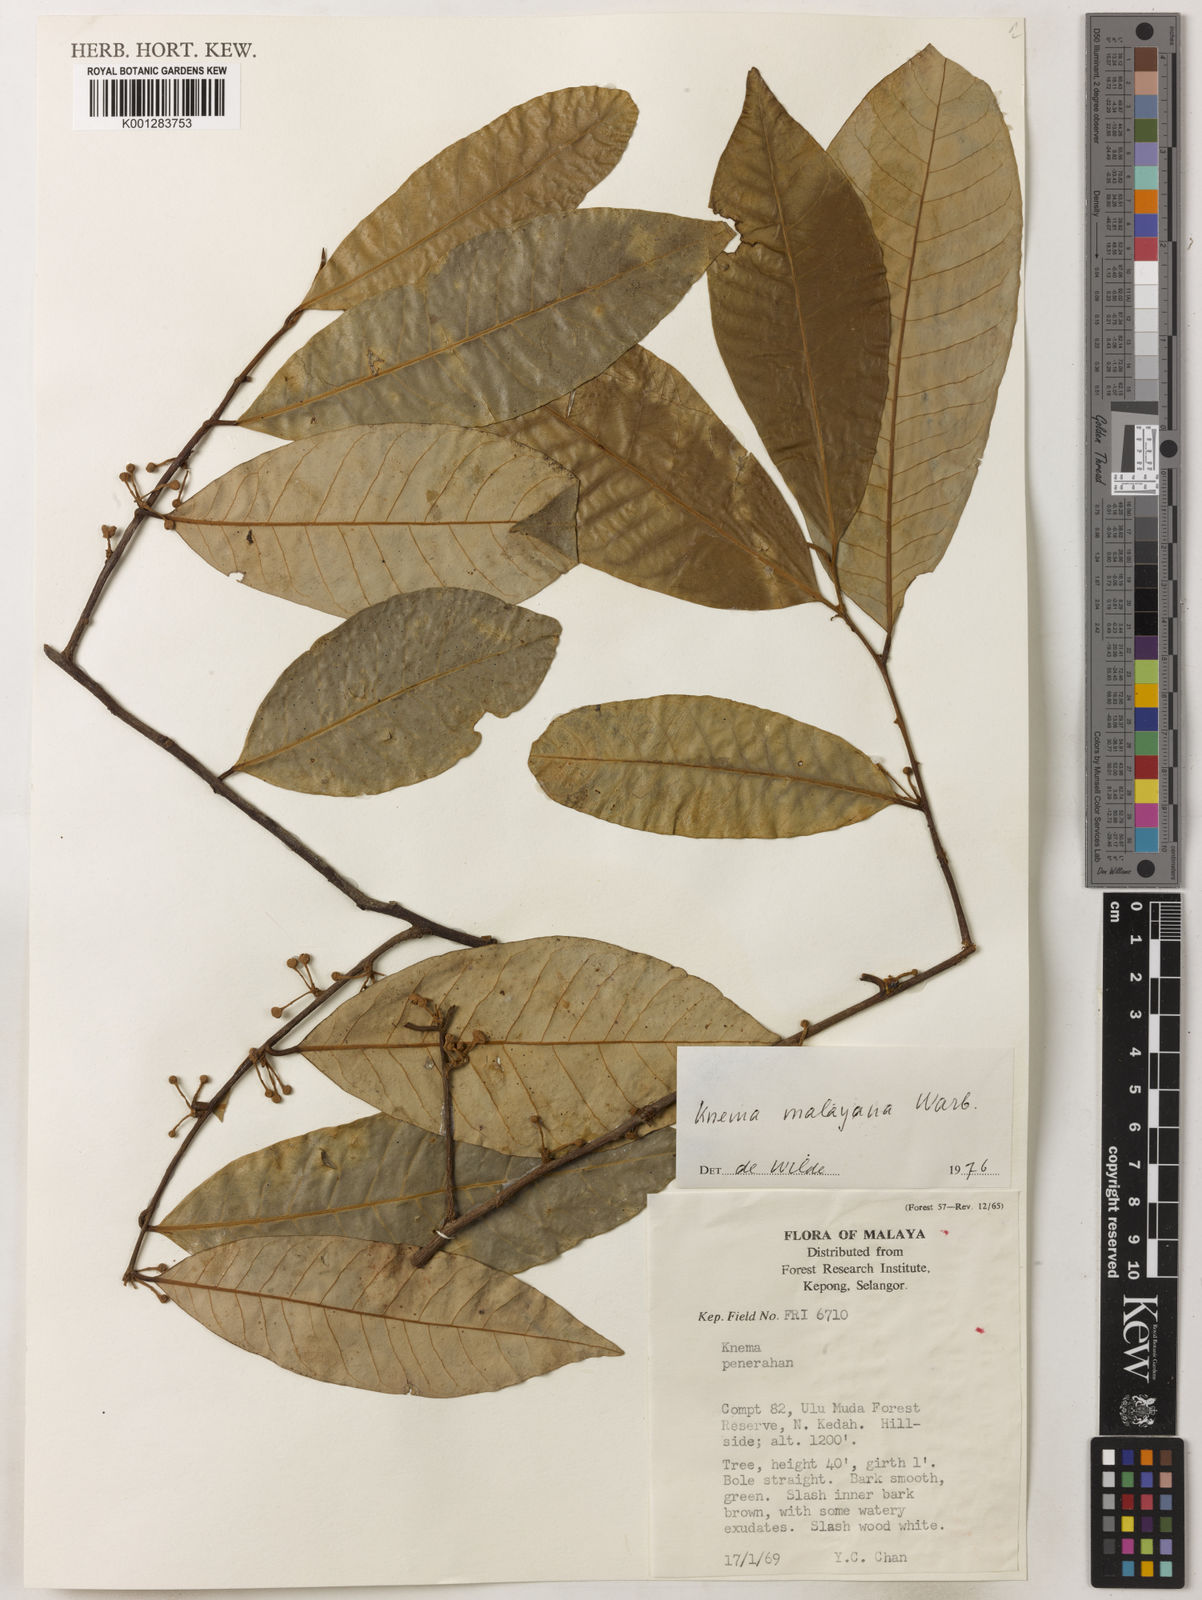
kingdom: Plantae
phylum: Tracheophyta
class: Magnoliopsida
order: Magnoliales
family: Myristicaceae
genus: Knema
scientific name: Knema malayana
